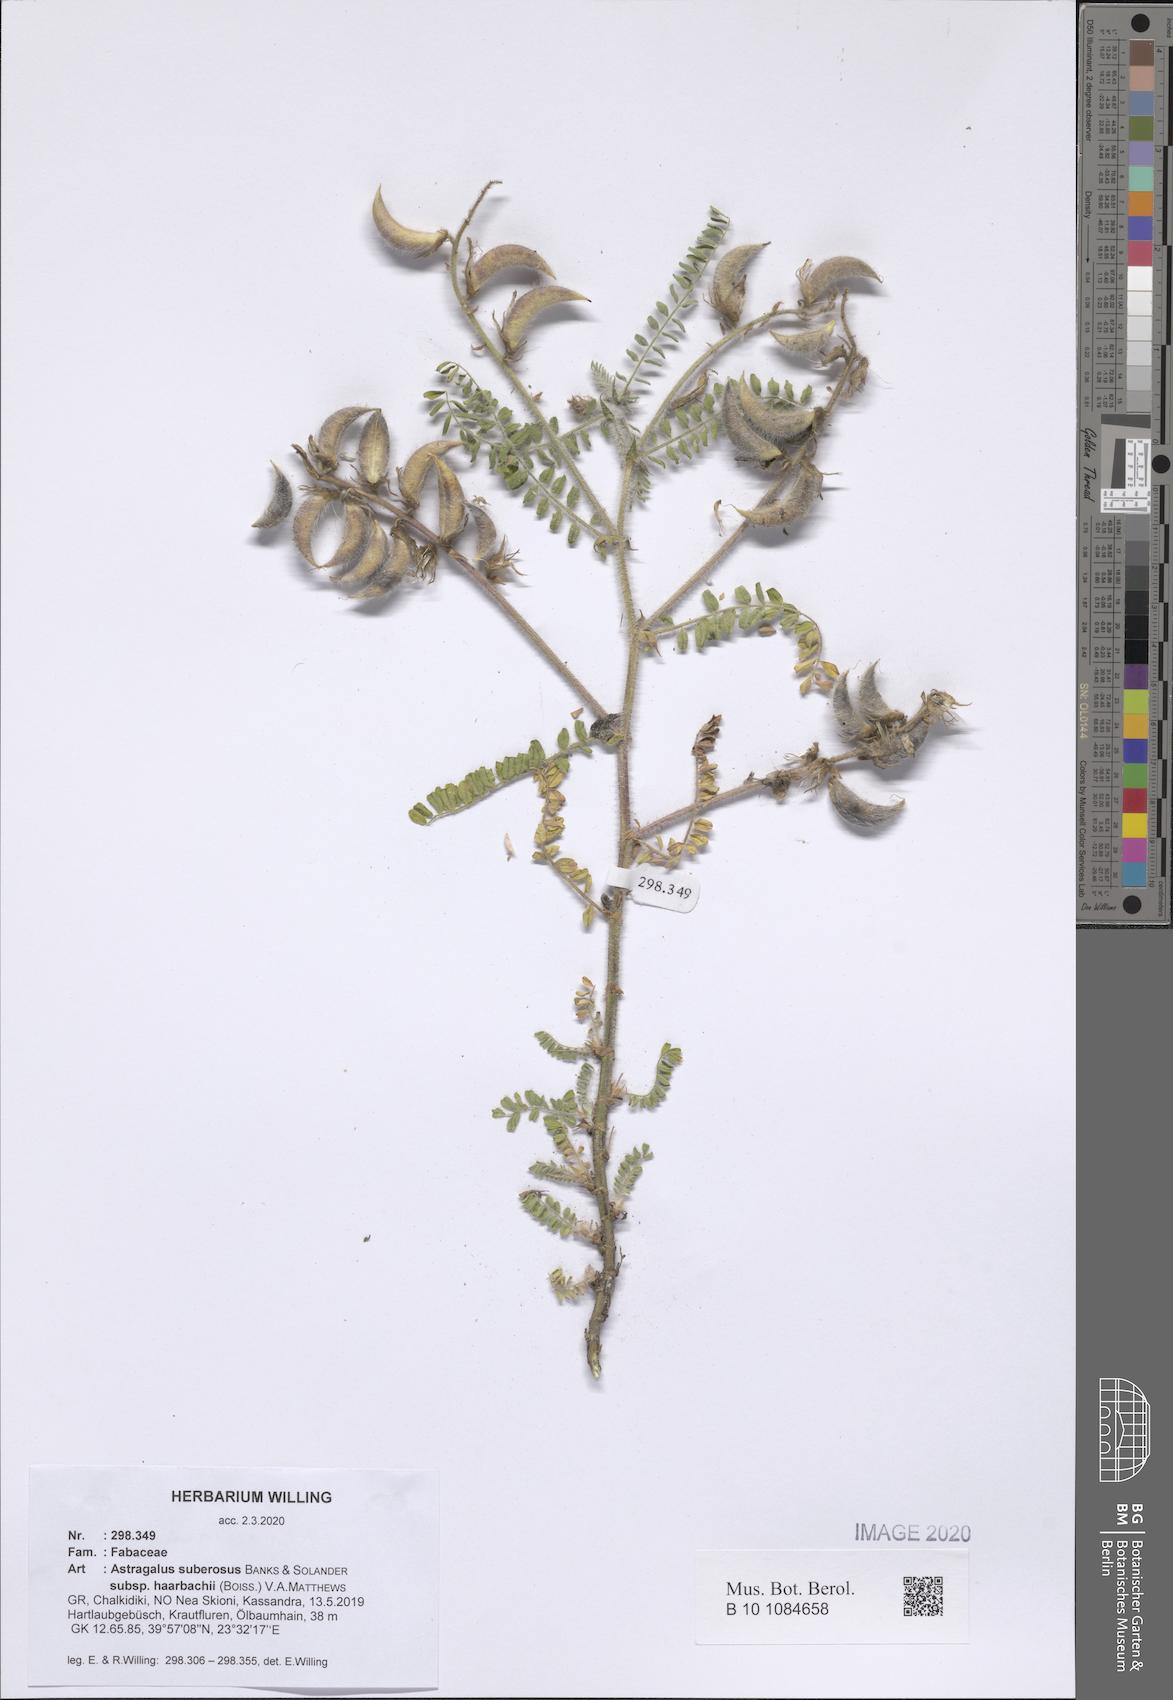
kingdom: Plantae
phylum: Tracheophyta
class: Magnoliopsida
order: Fabales
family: Fabaceae
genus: Astragalus
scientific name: Astragalus suberosus
